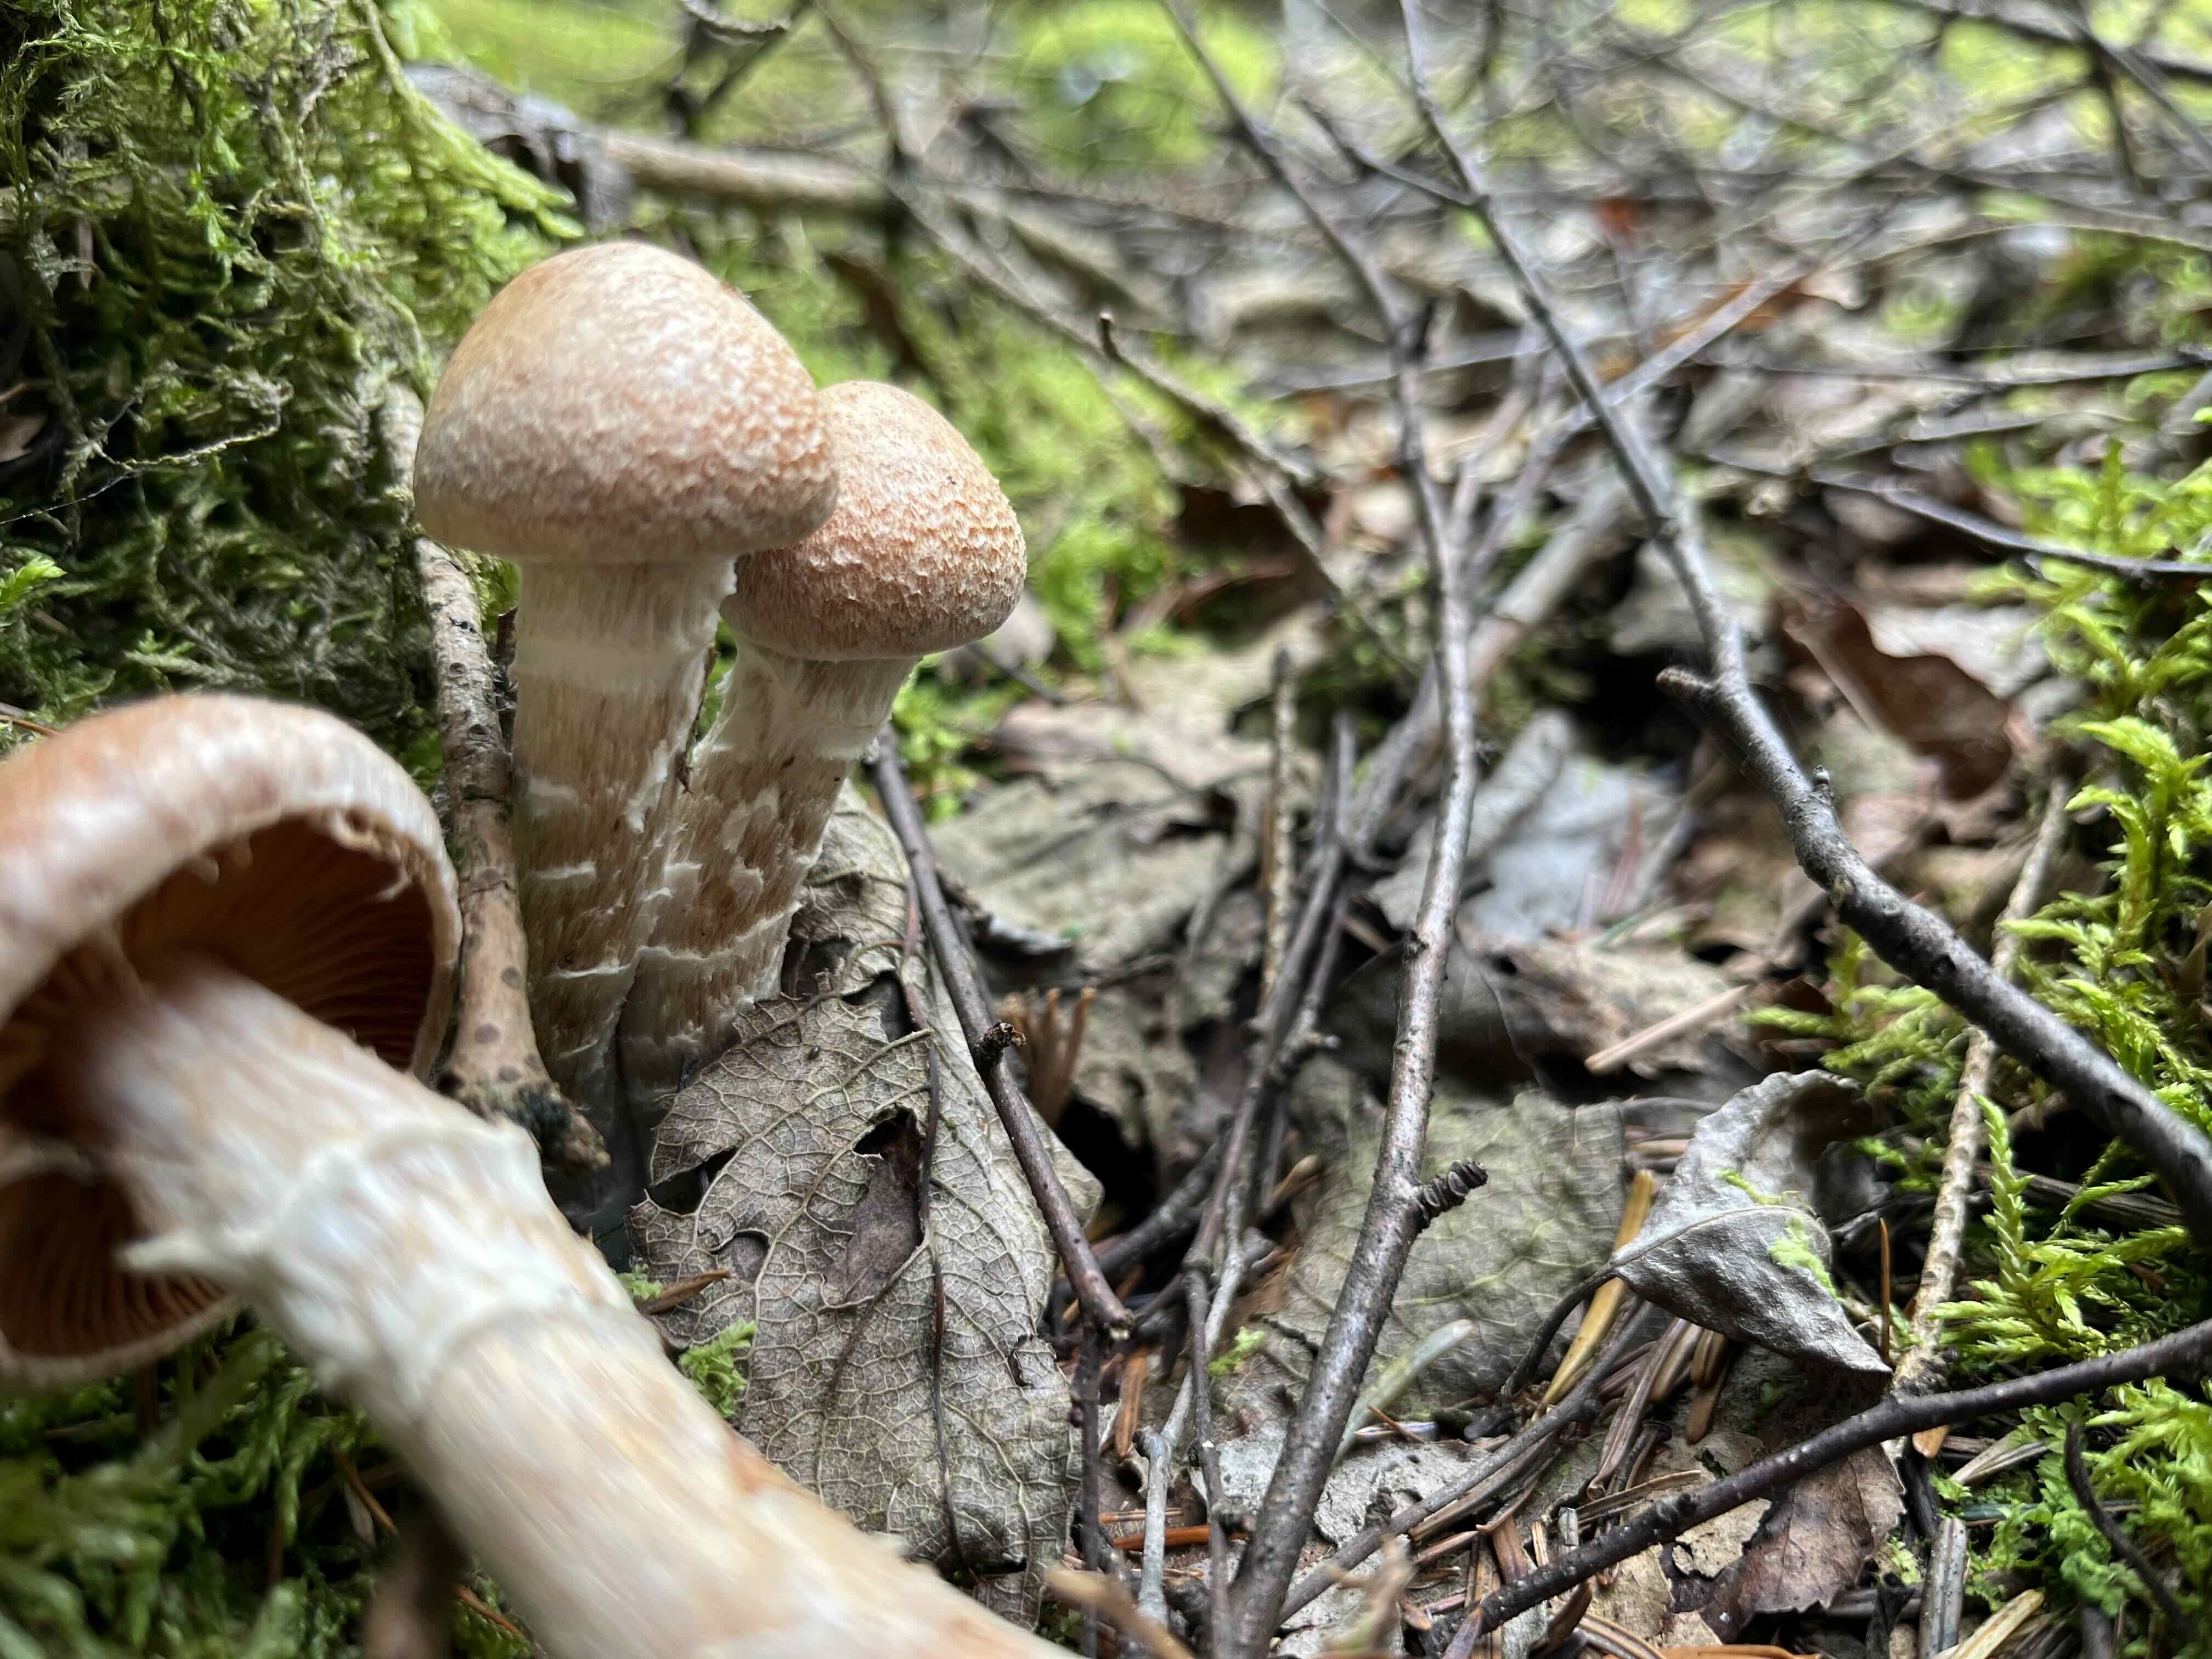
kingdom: Fungi
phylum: Basidiomycota
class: Agaricomycetes
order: Agaricales
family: Cortinariaceae
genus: Cortinarius
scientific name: Cortinarius laniger
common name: teglbladet slørhat
